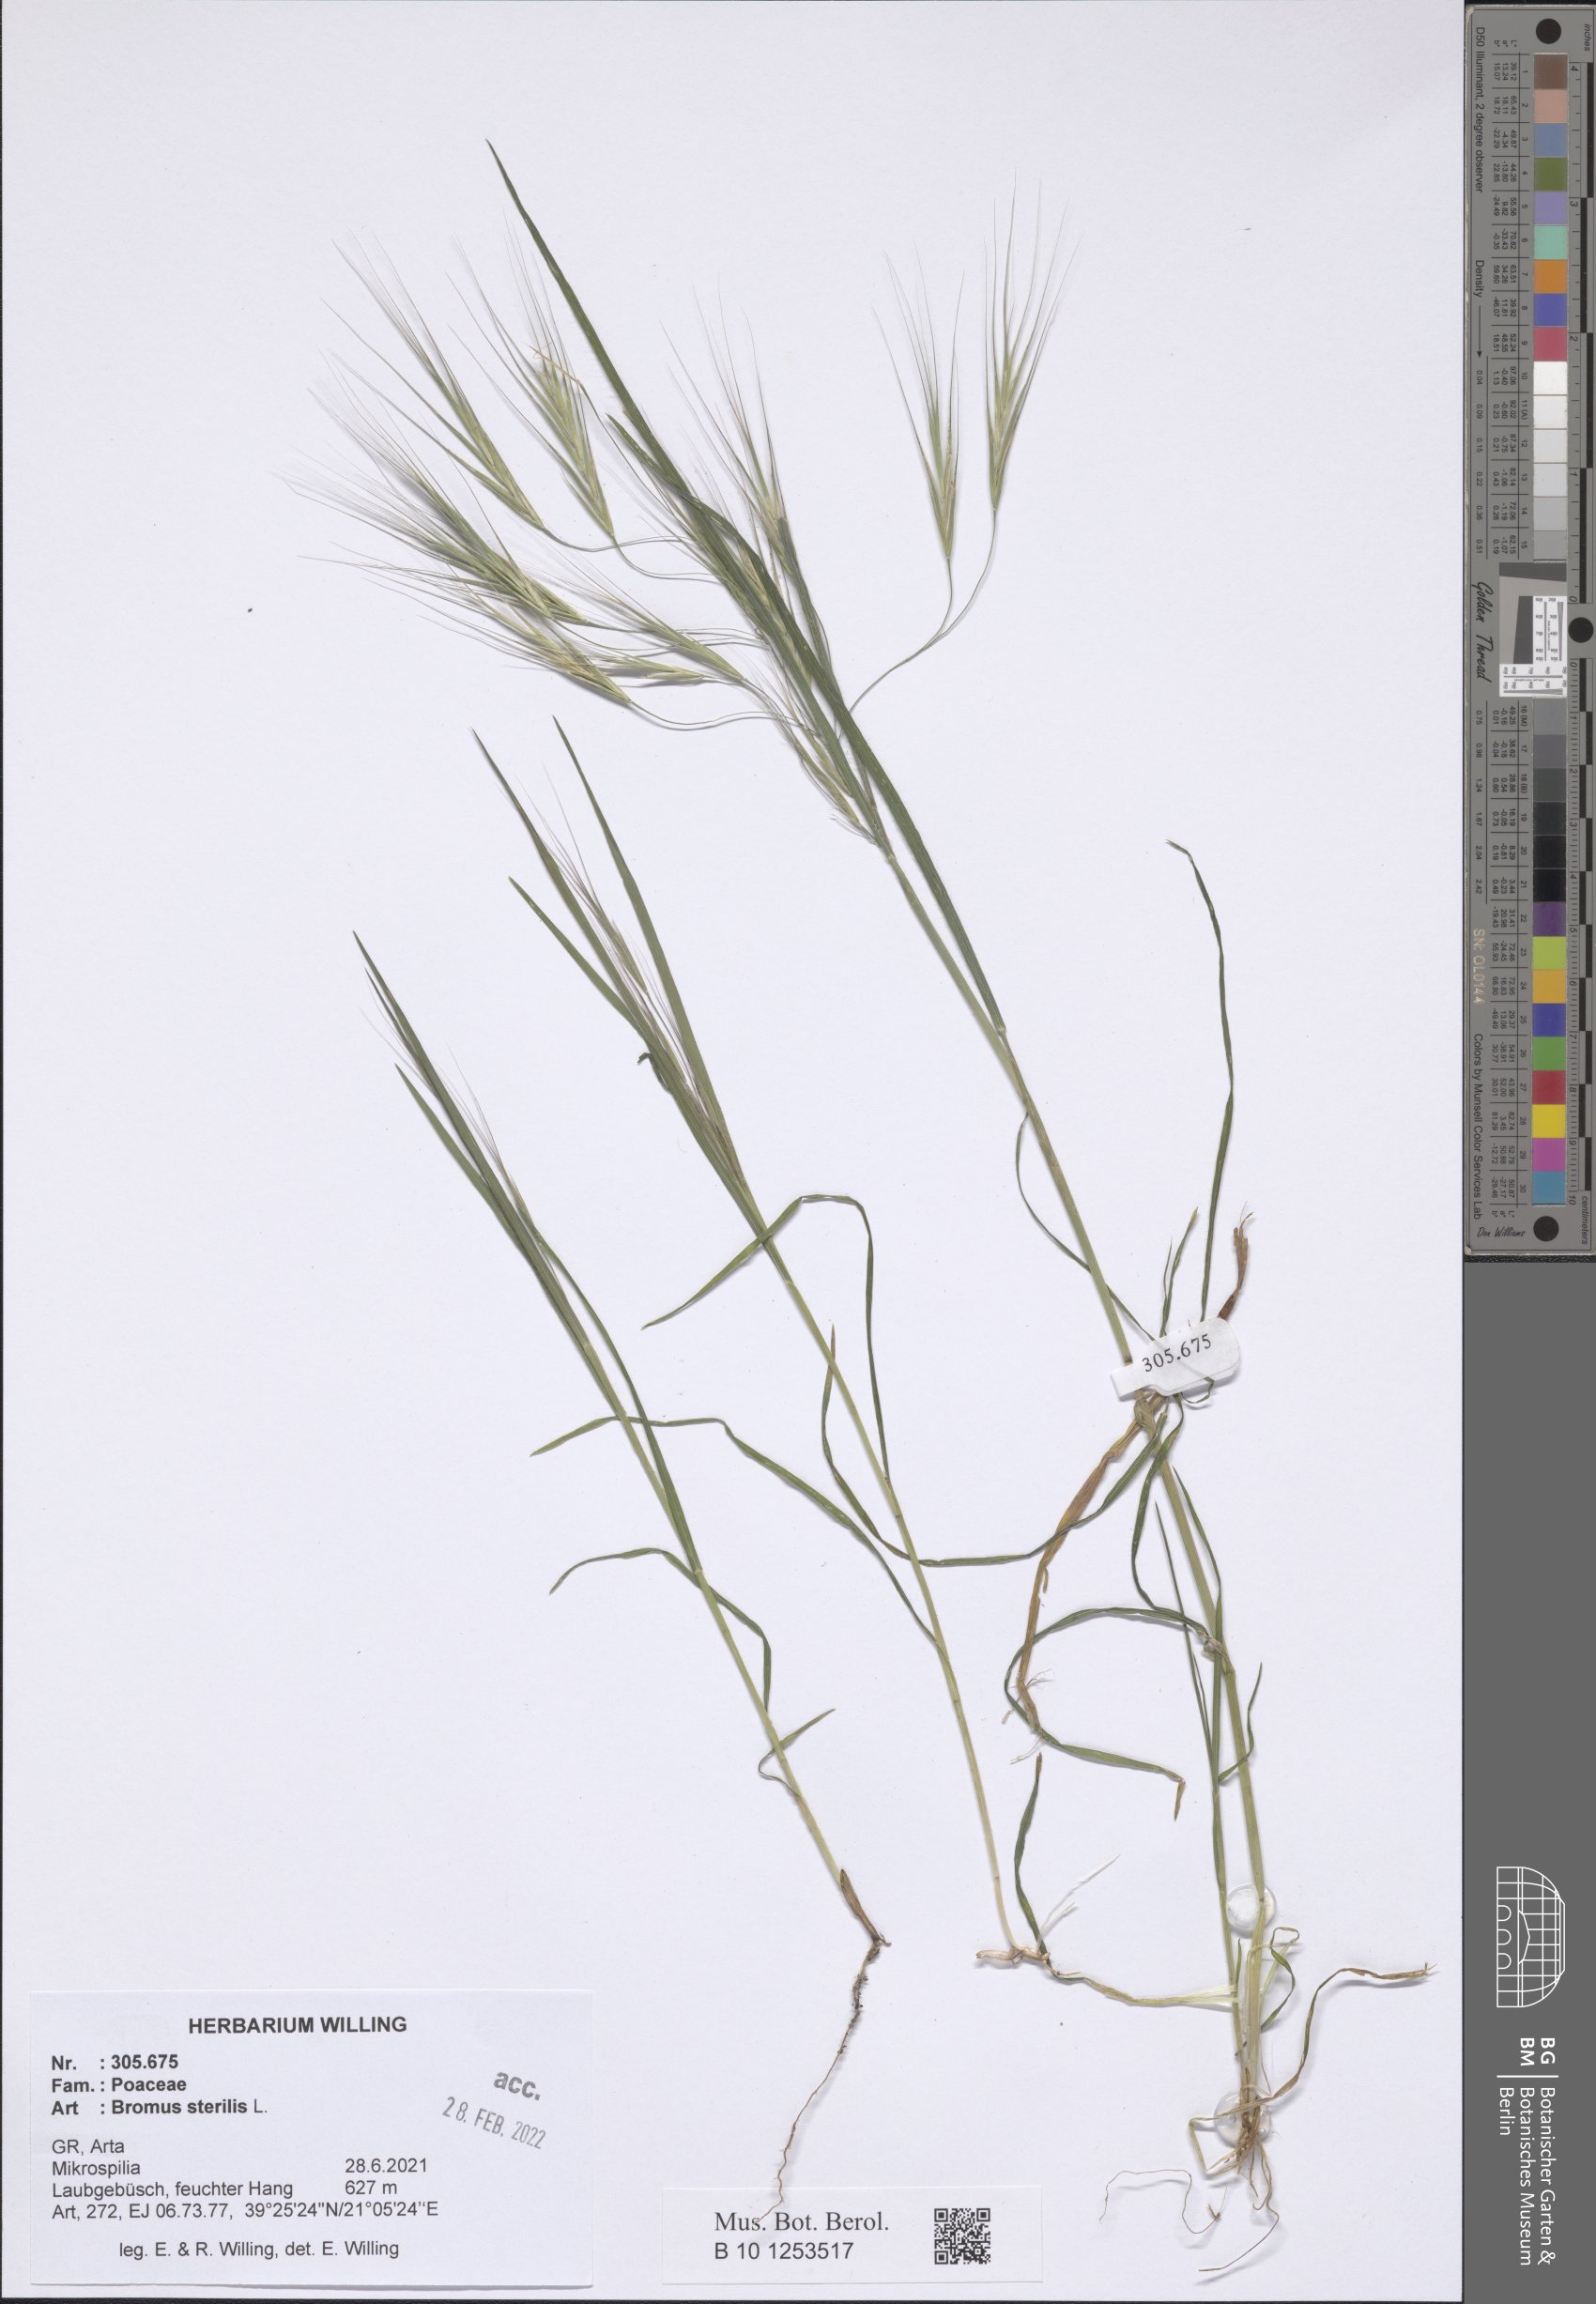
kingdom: Plantae
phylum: Tracheophyta
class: Liliopsida
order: Poales
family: Poaceae
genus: Bromus
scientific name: Bromus sterilis
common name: Poverty brome
